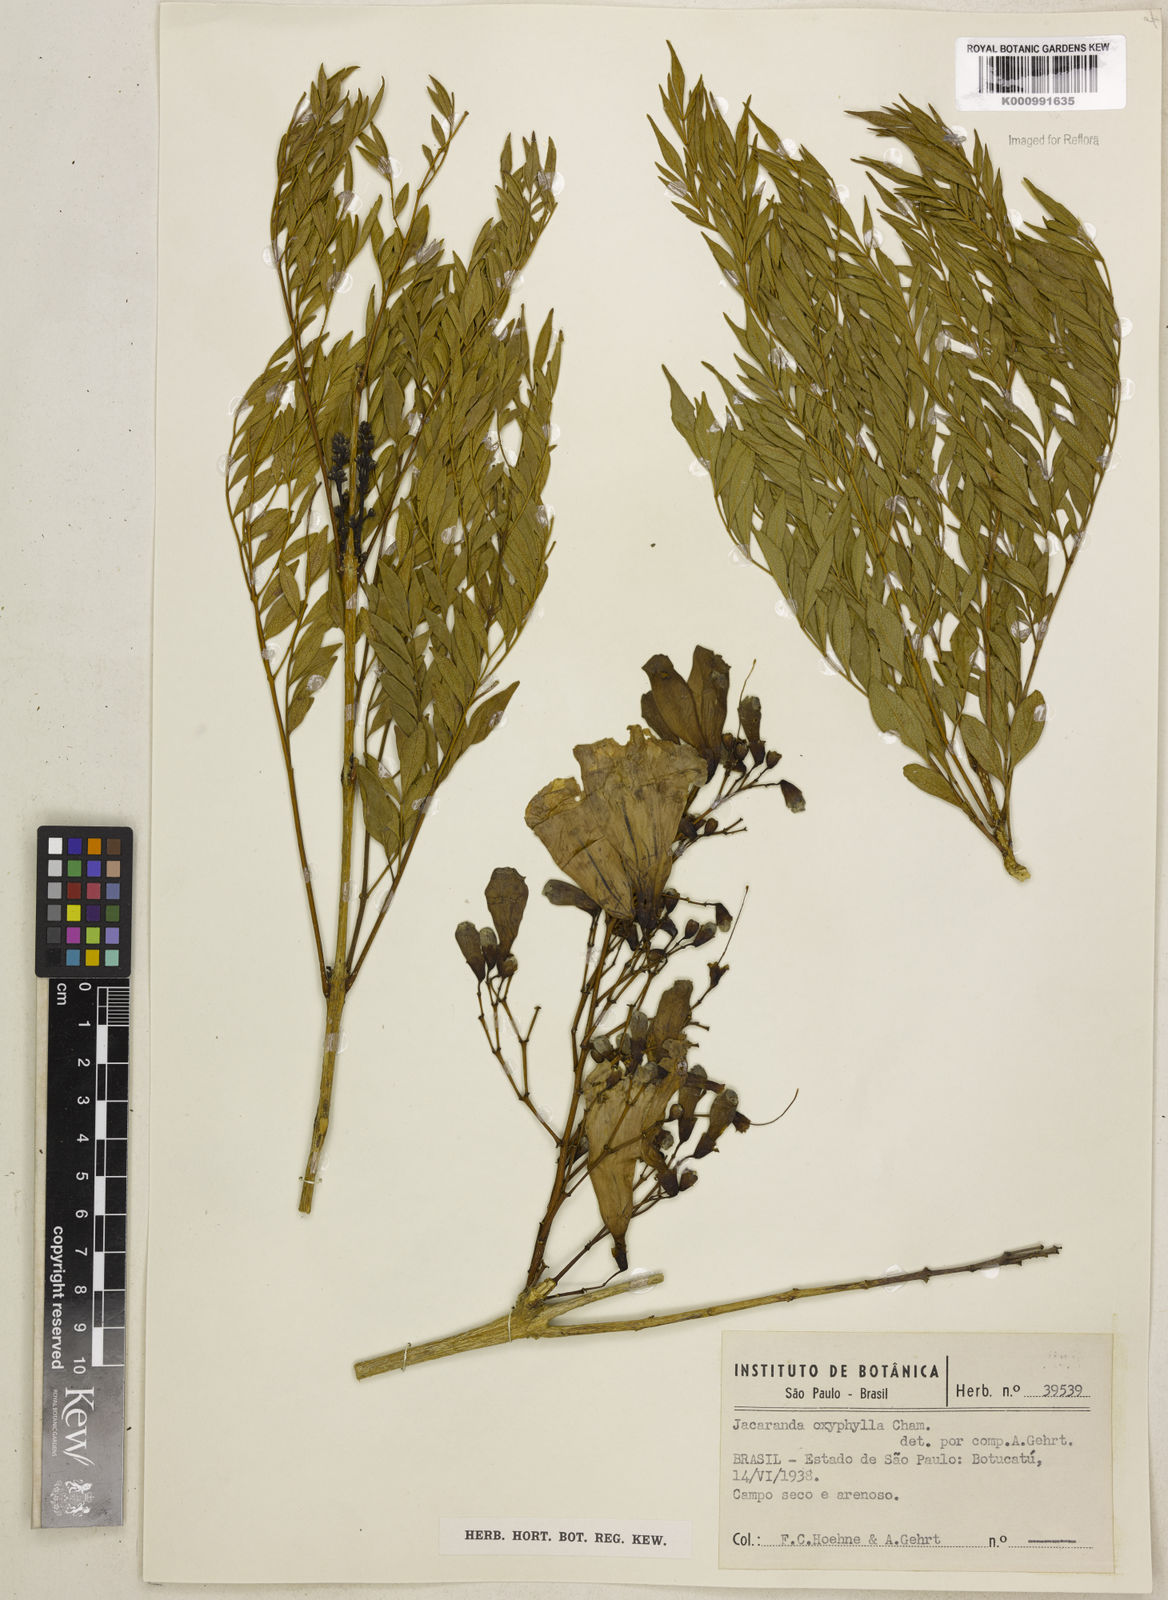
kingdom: Plantae
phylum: Tracheophyta
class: Magnoliopsida
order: Lamiales
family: Bignoniaceae
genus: Jacaranda
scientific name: Jacaranda caroba
